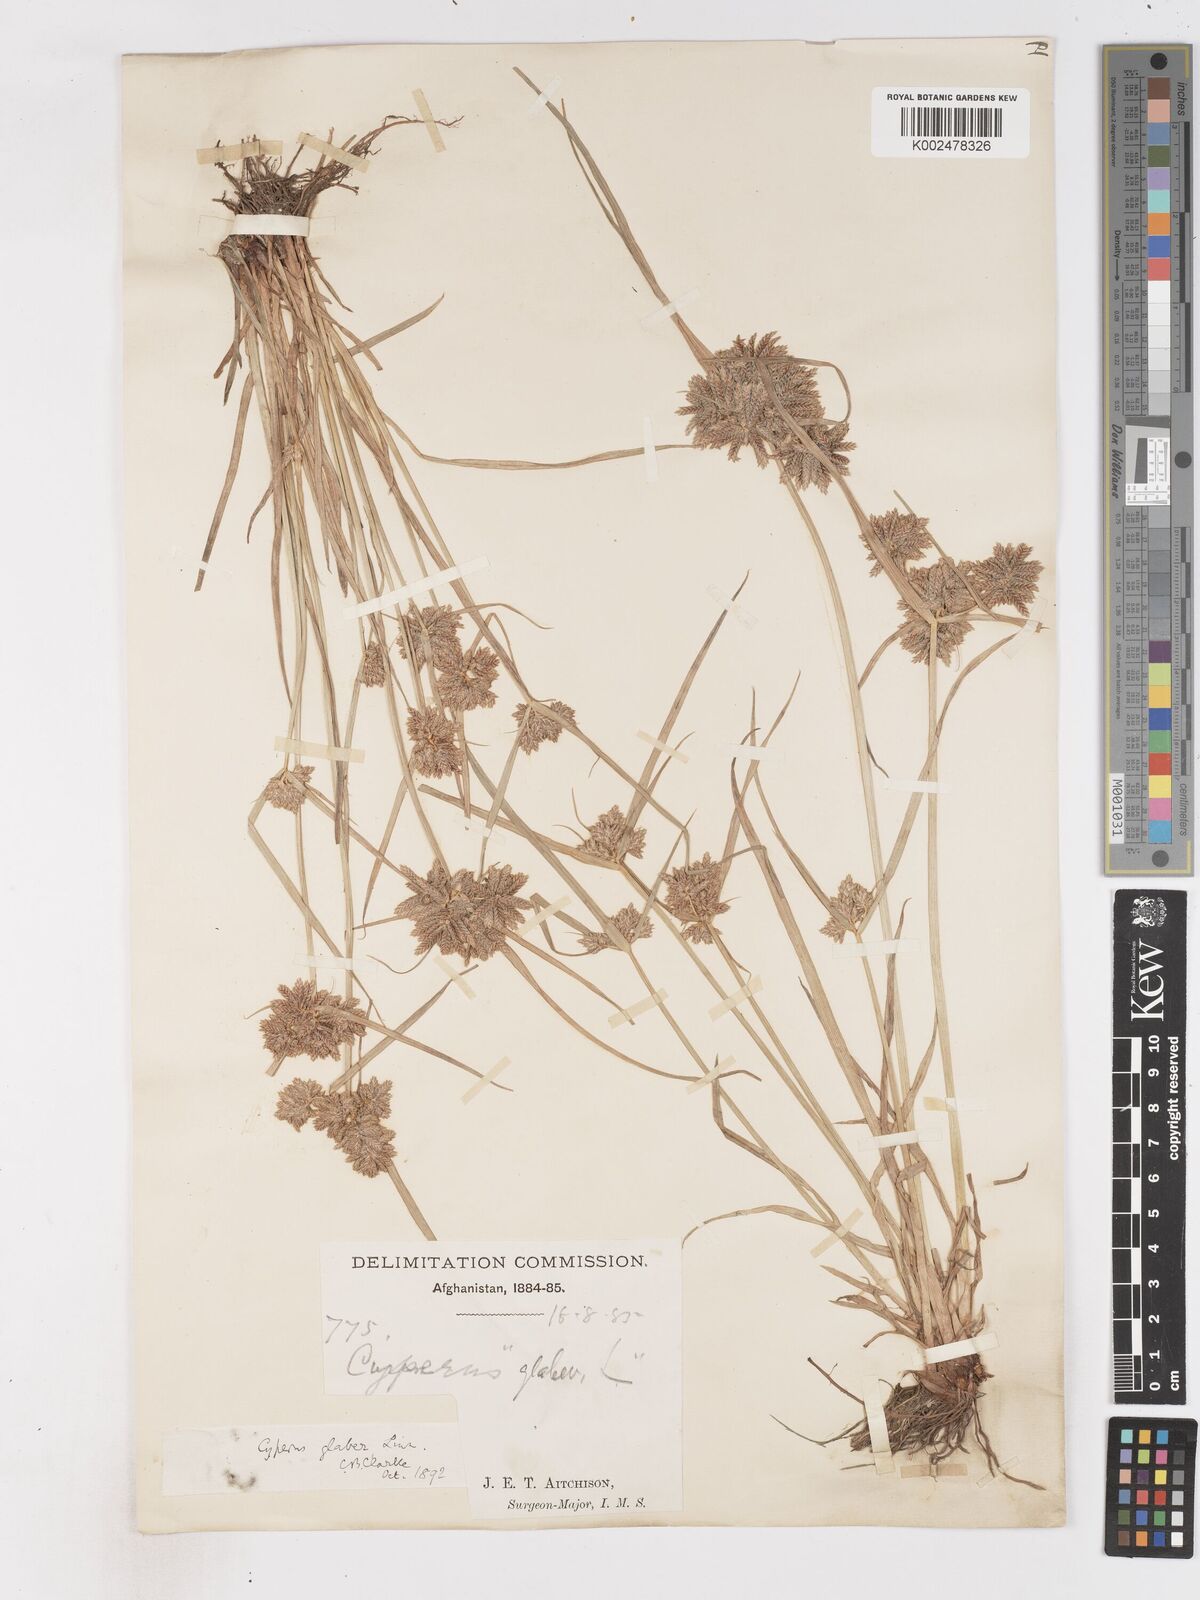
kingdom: Plantae
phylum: Tracheophyta
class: Liliopsida
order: Poales
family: Cyperaceae
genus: Cyperus
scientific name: Cyperus glaber
